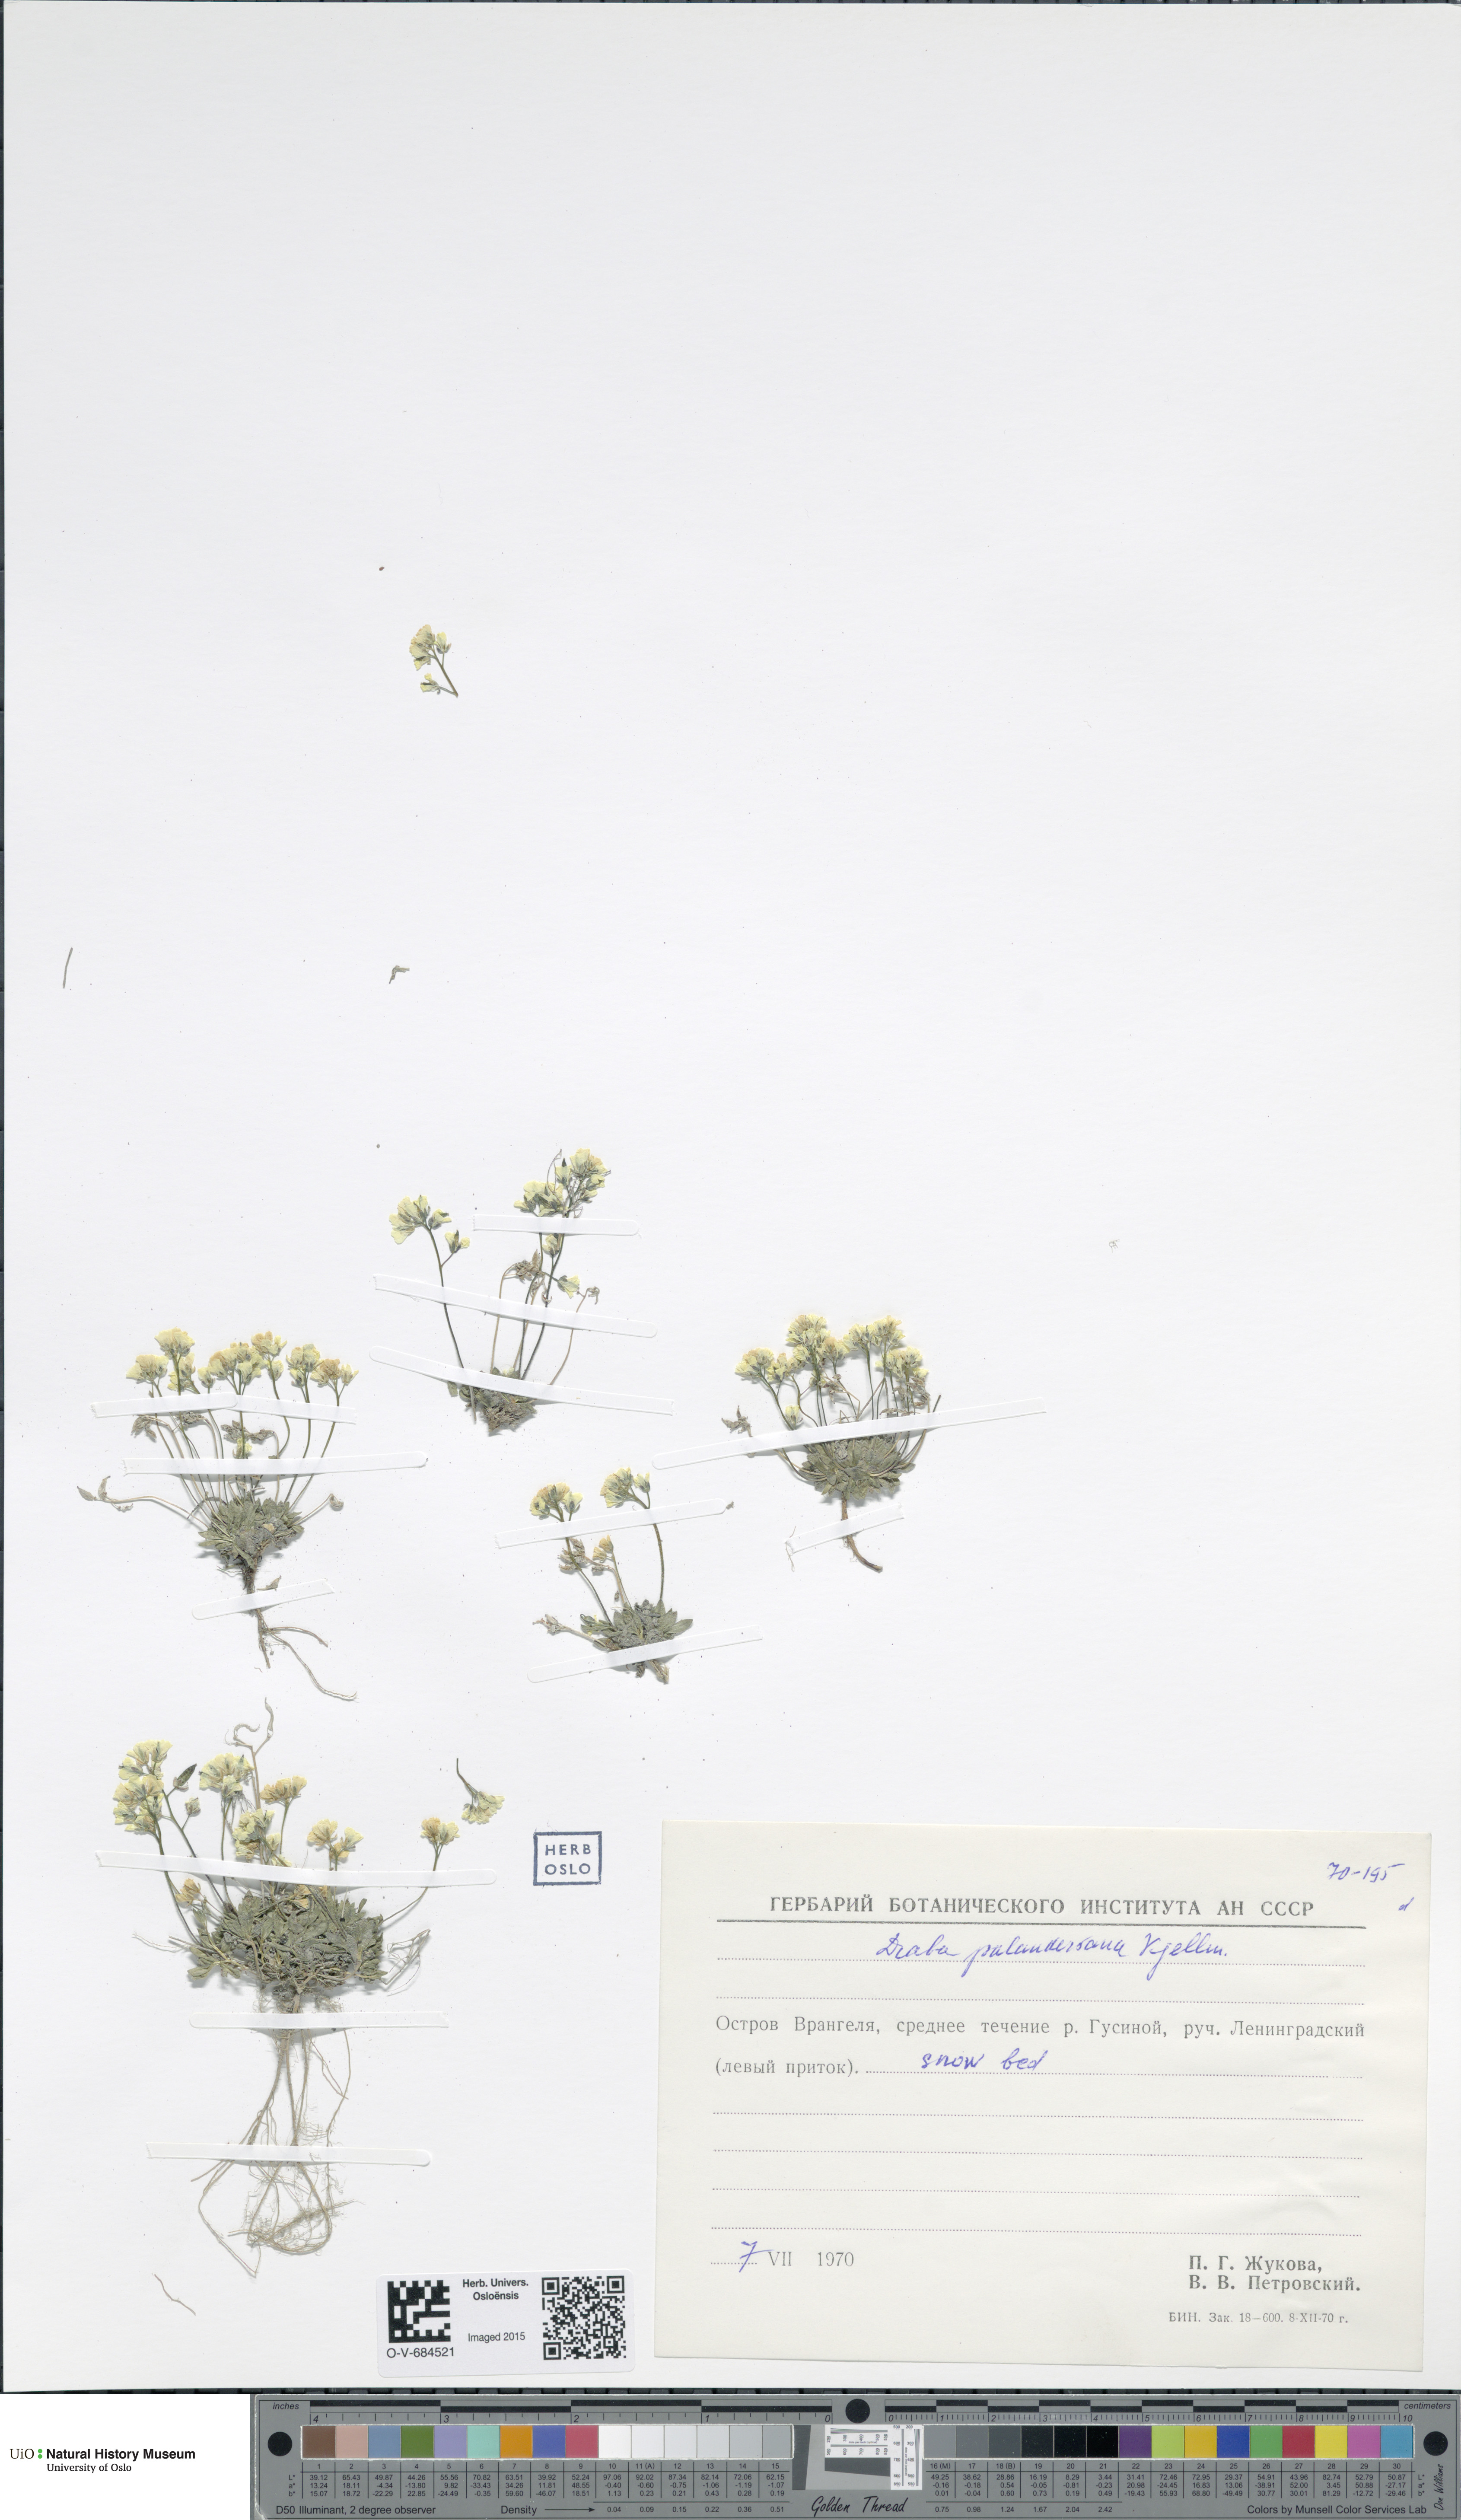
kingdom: Plantae
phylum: Tracheophyta
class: Magnoliopsida
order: Brassicales
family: Brassicaceae
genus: Draba
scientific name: Draba palanderiana
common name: Palander's draba
